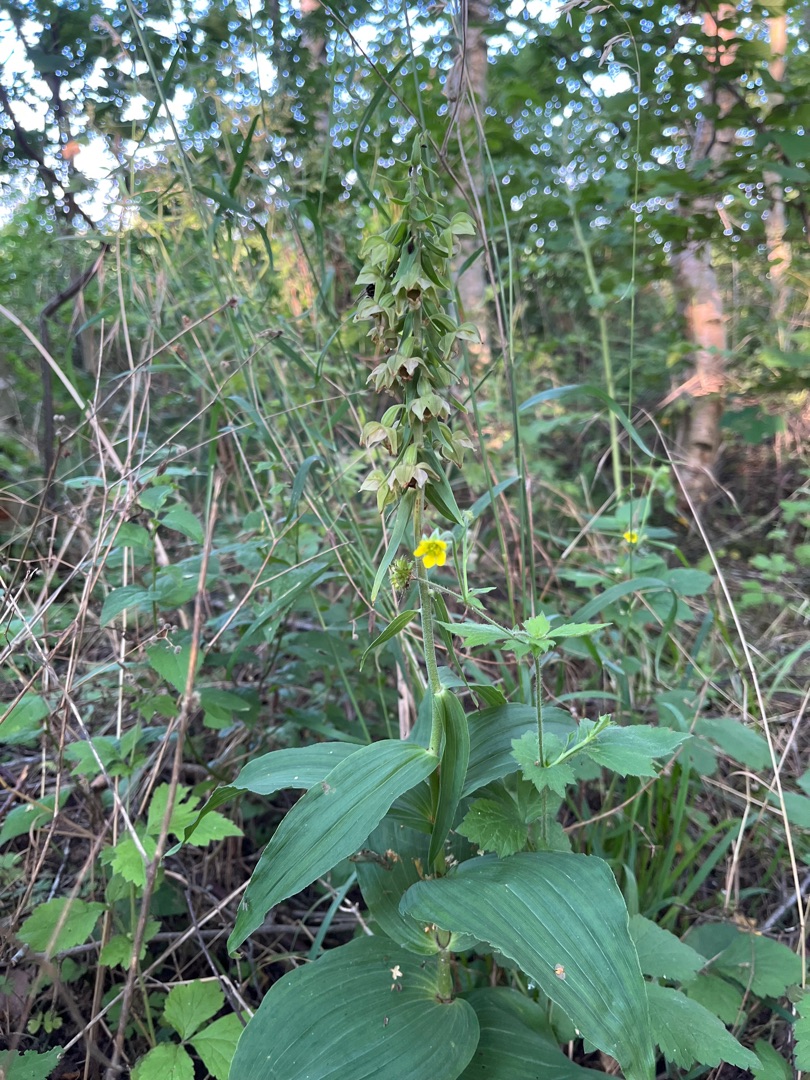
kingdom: Plantae
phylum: Tracheophyta
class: Liliopsida
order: Asparagales
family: Orchidaceae
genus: Epipactis
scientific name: Epipactis helleborine
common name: Skov-hullæbe
